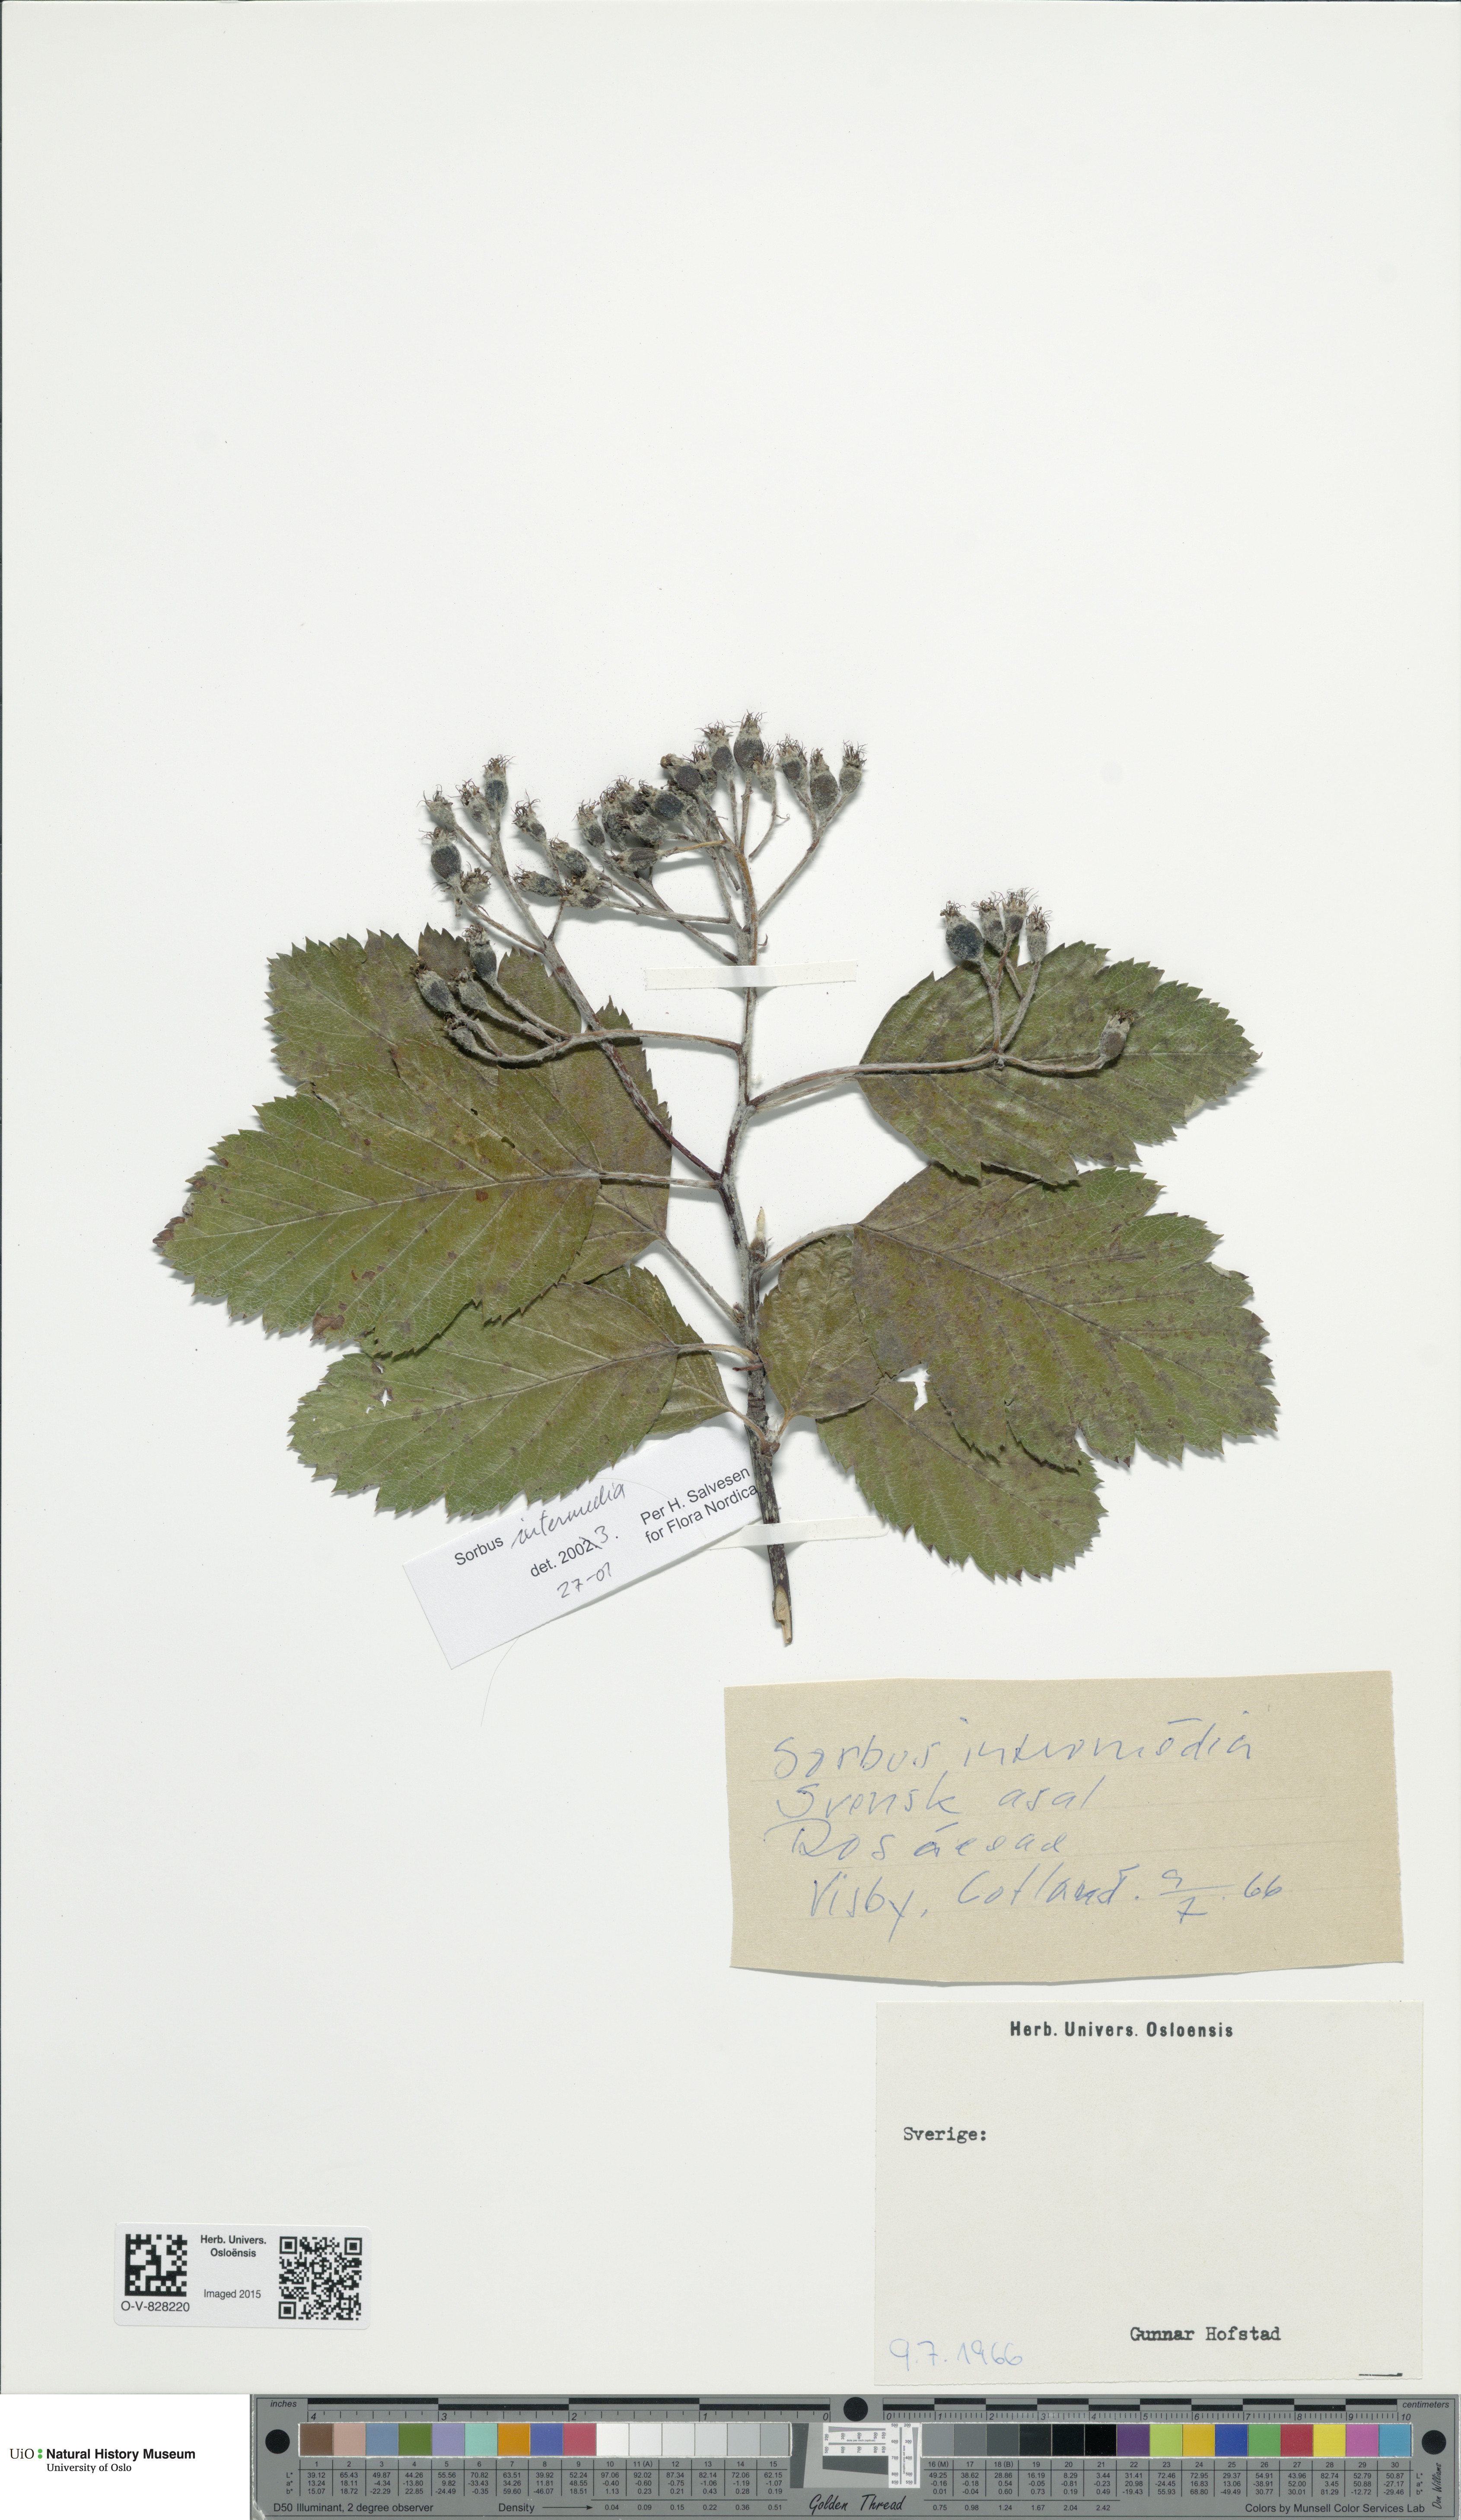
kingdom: Plantae
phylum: Tracheophyta
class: Magnoliopsida
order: Rosales
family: Rosaceae
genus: Scandosorbus
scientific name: Scandosorbus intermedia
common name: Swedish whitebeam
